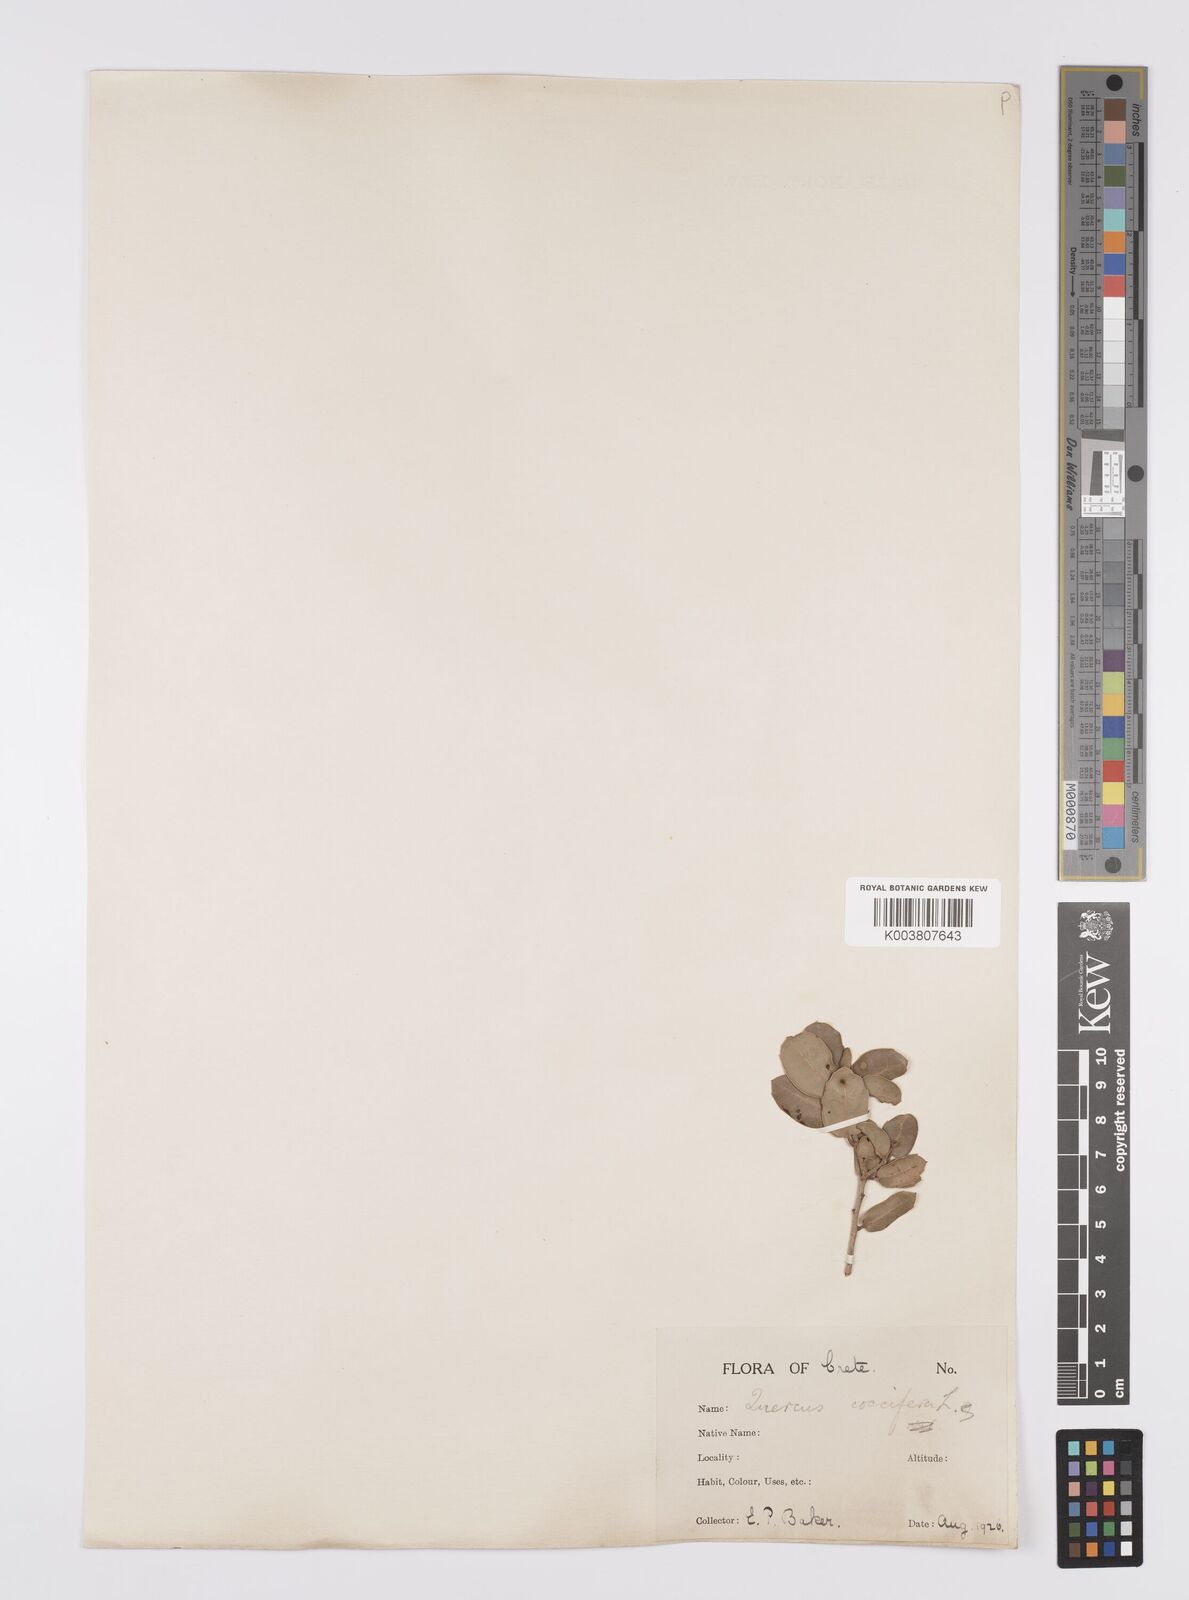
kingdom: Plantae
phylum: Tracheophyta
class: Magnoliopsida
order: Fagales
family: Fagaceae
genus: Quercus
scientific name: Quercus coccifera
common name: Kermes oak
